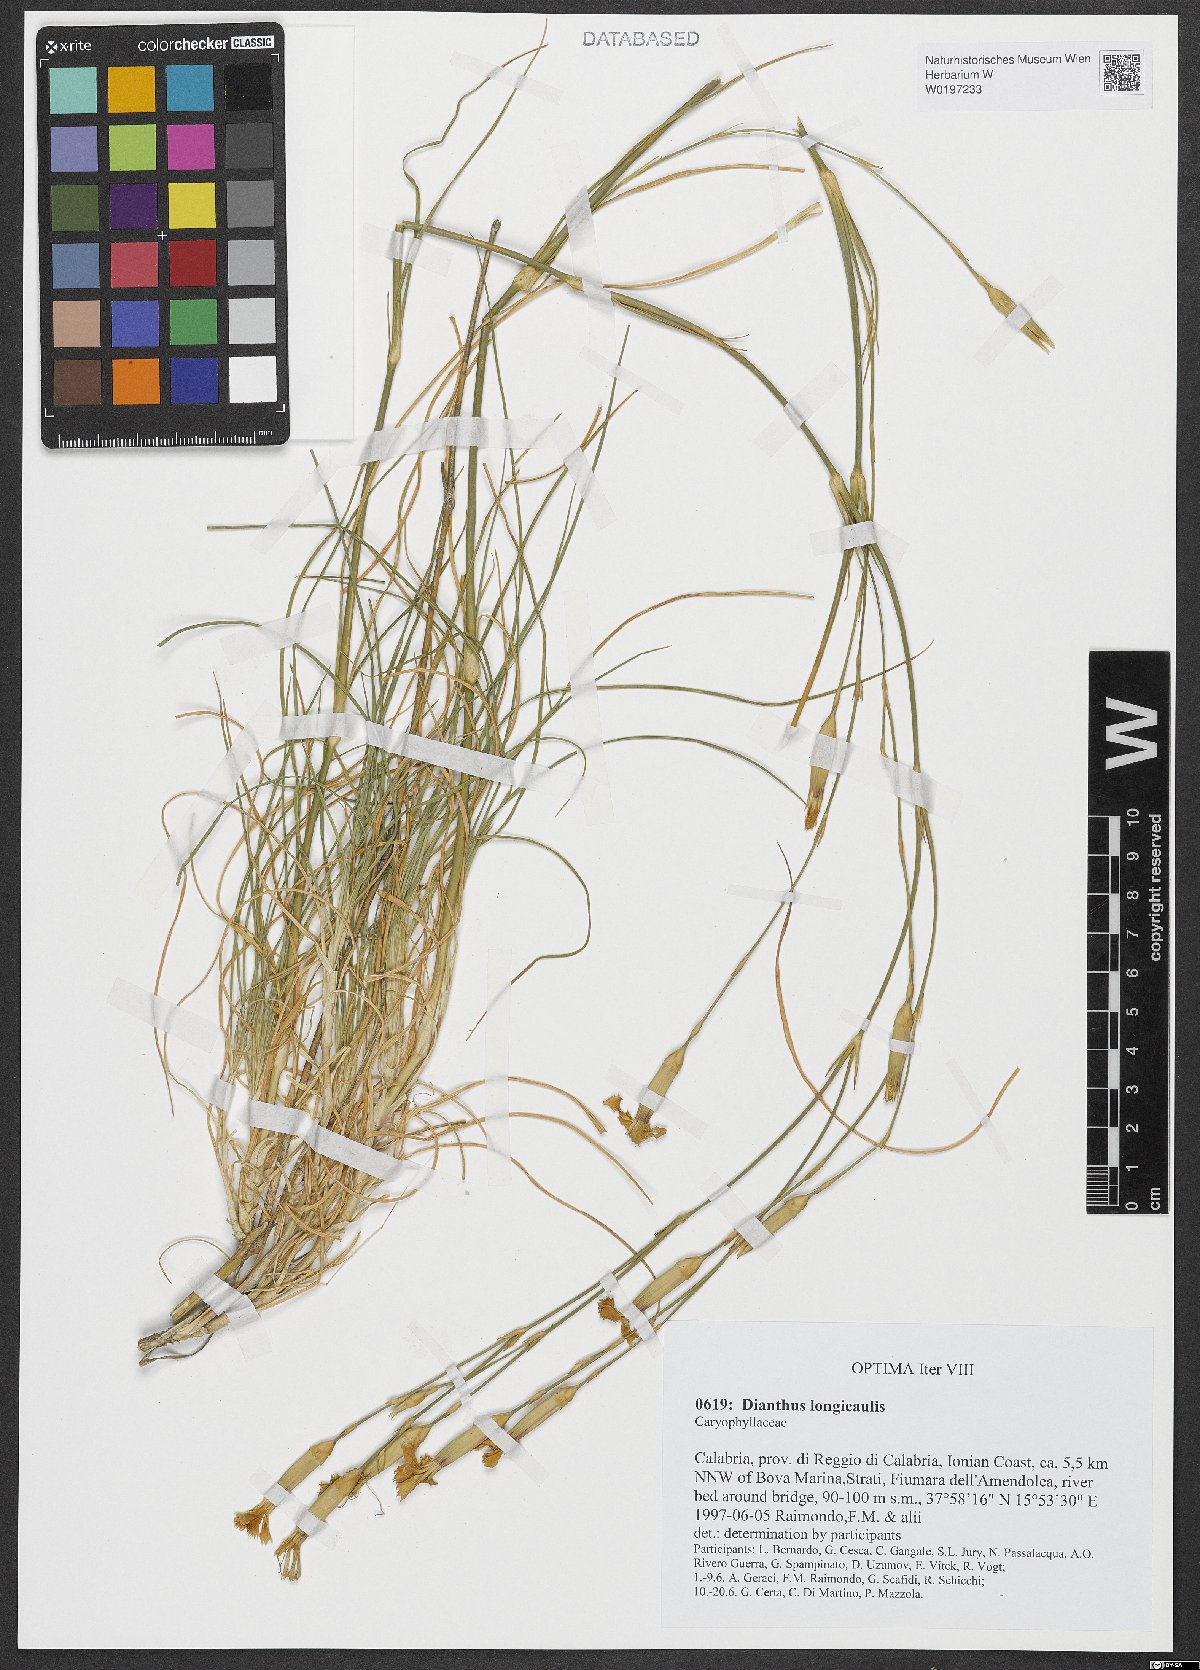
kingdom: Plantae
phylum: Tracheophyta
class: Magnoliopsida
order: Caryophyllales
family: Caryophyllaceae
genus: Dianthus
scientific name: Dianthus virgineus
